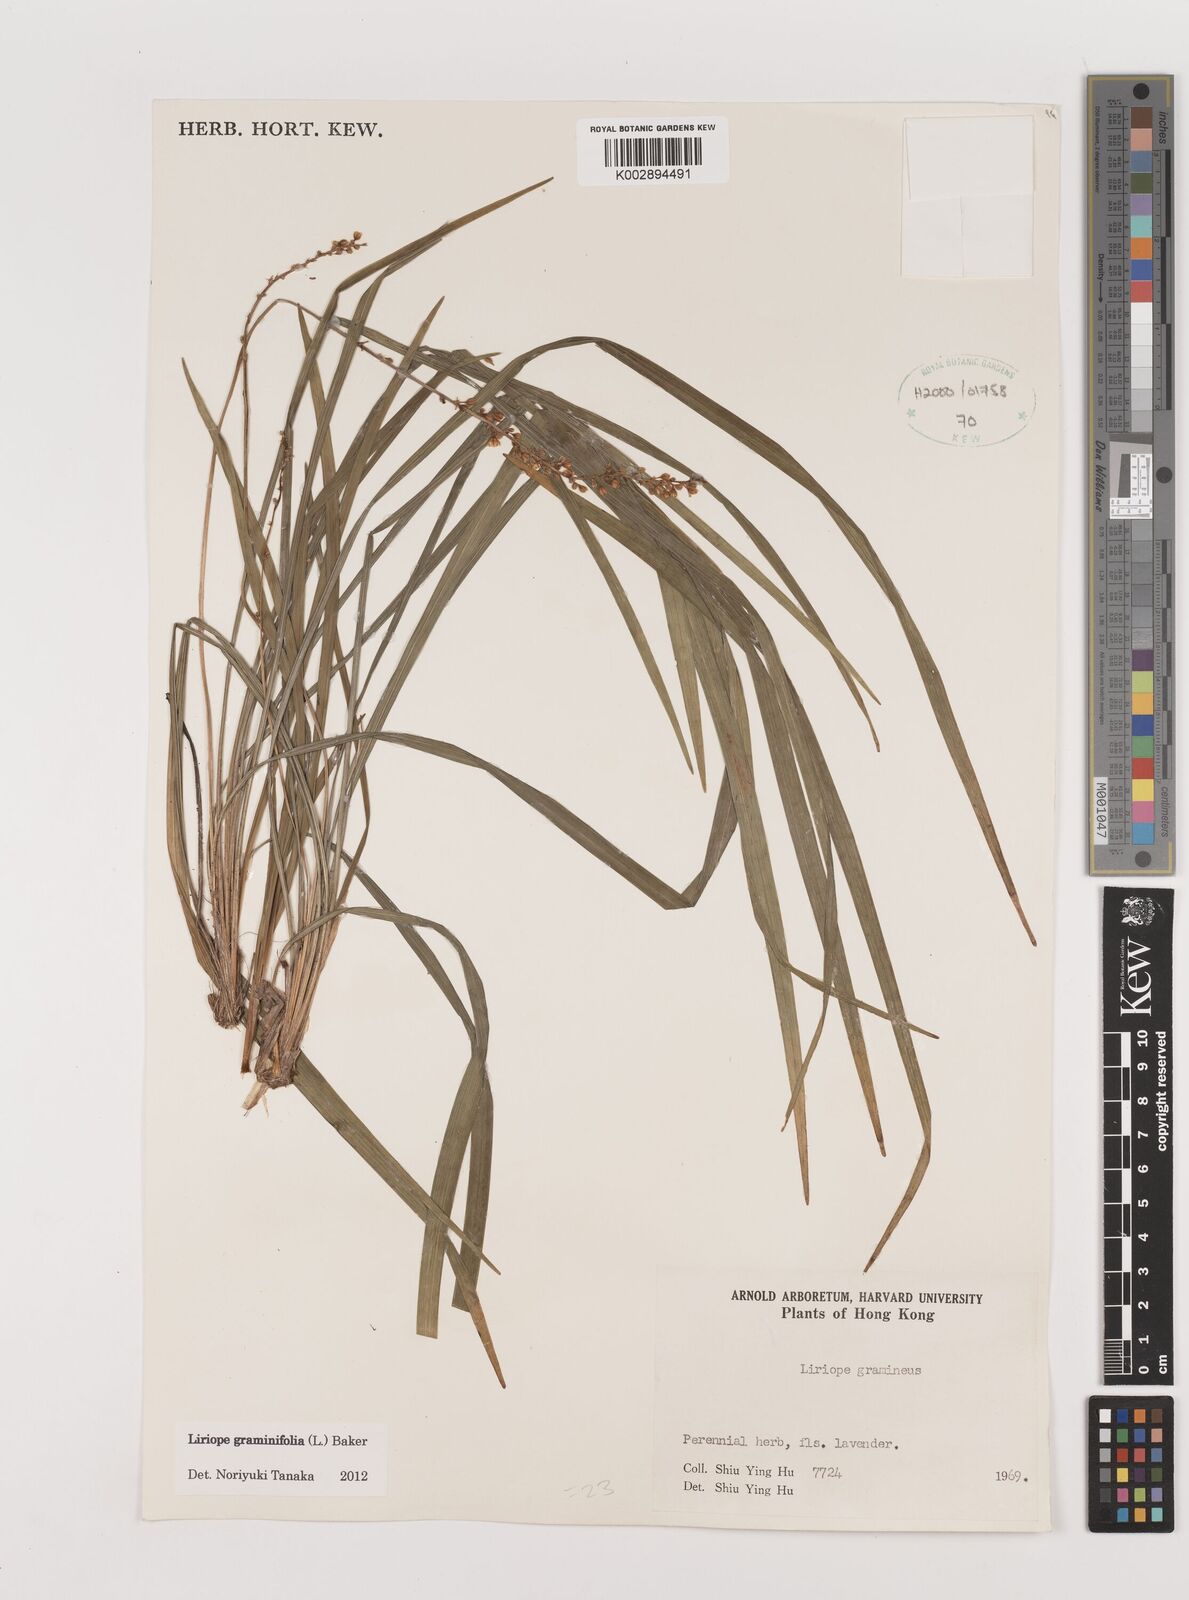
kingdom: Plantae
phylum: Tracheophyta
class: Liliopsida
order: Asparagales
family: Asparagaceae
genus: Liriope
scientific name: Liriope graminifolia
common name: Lilyturf
